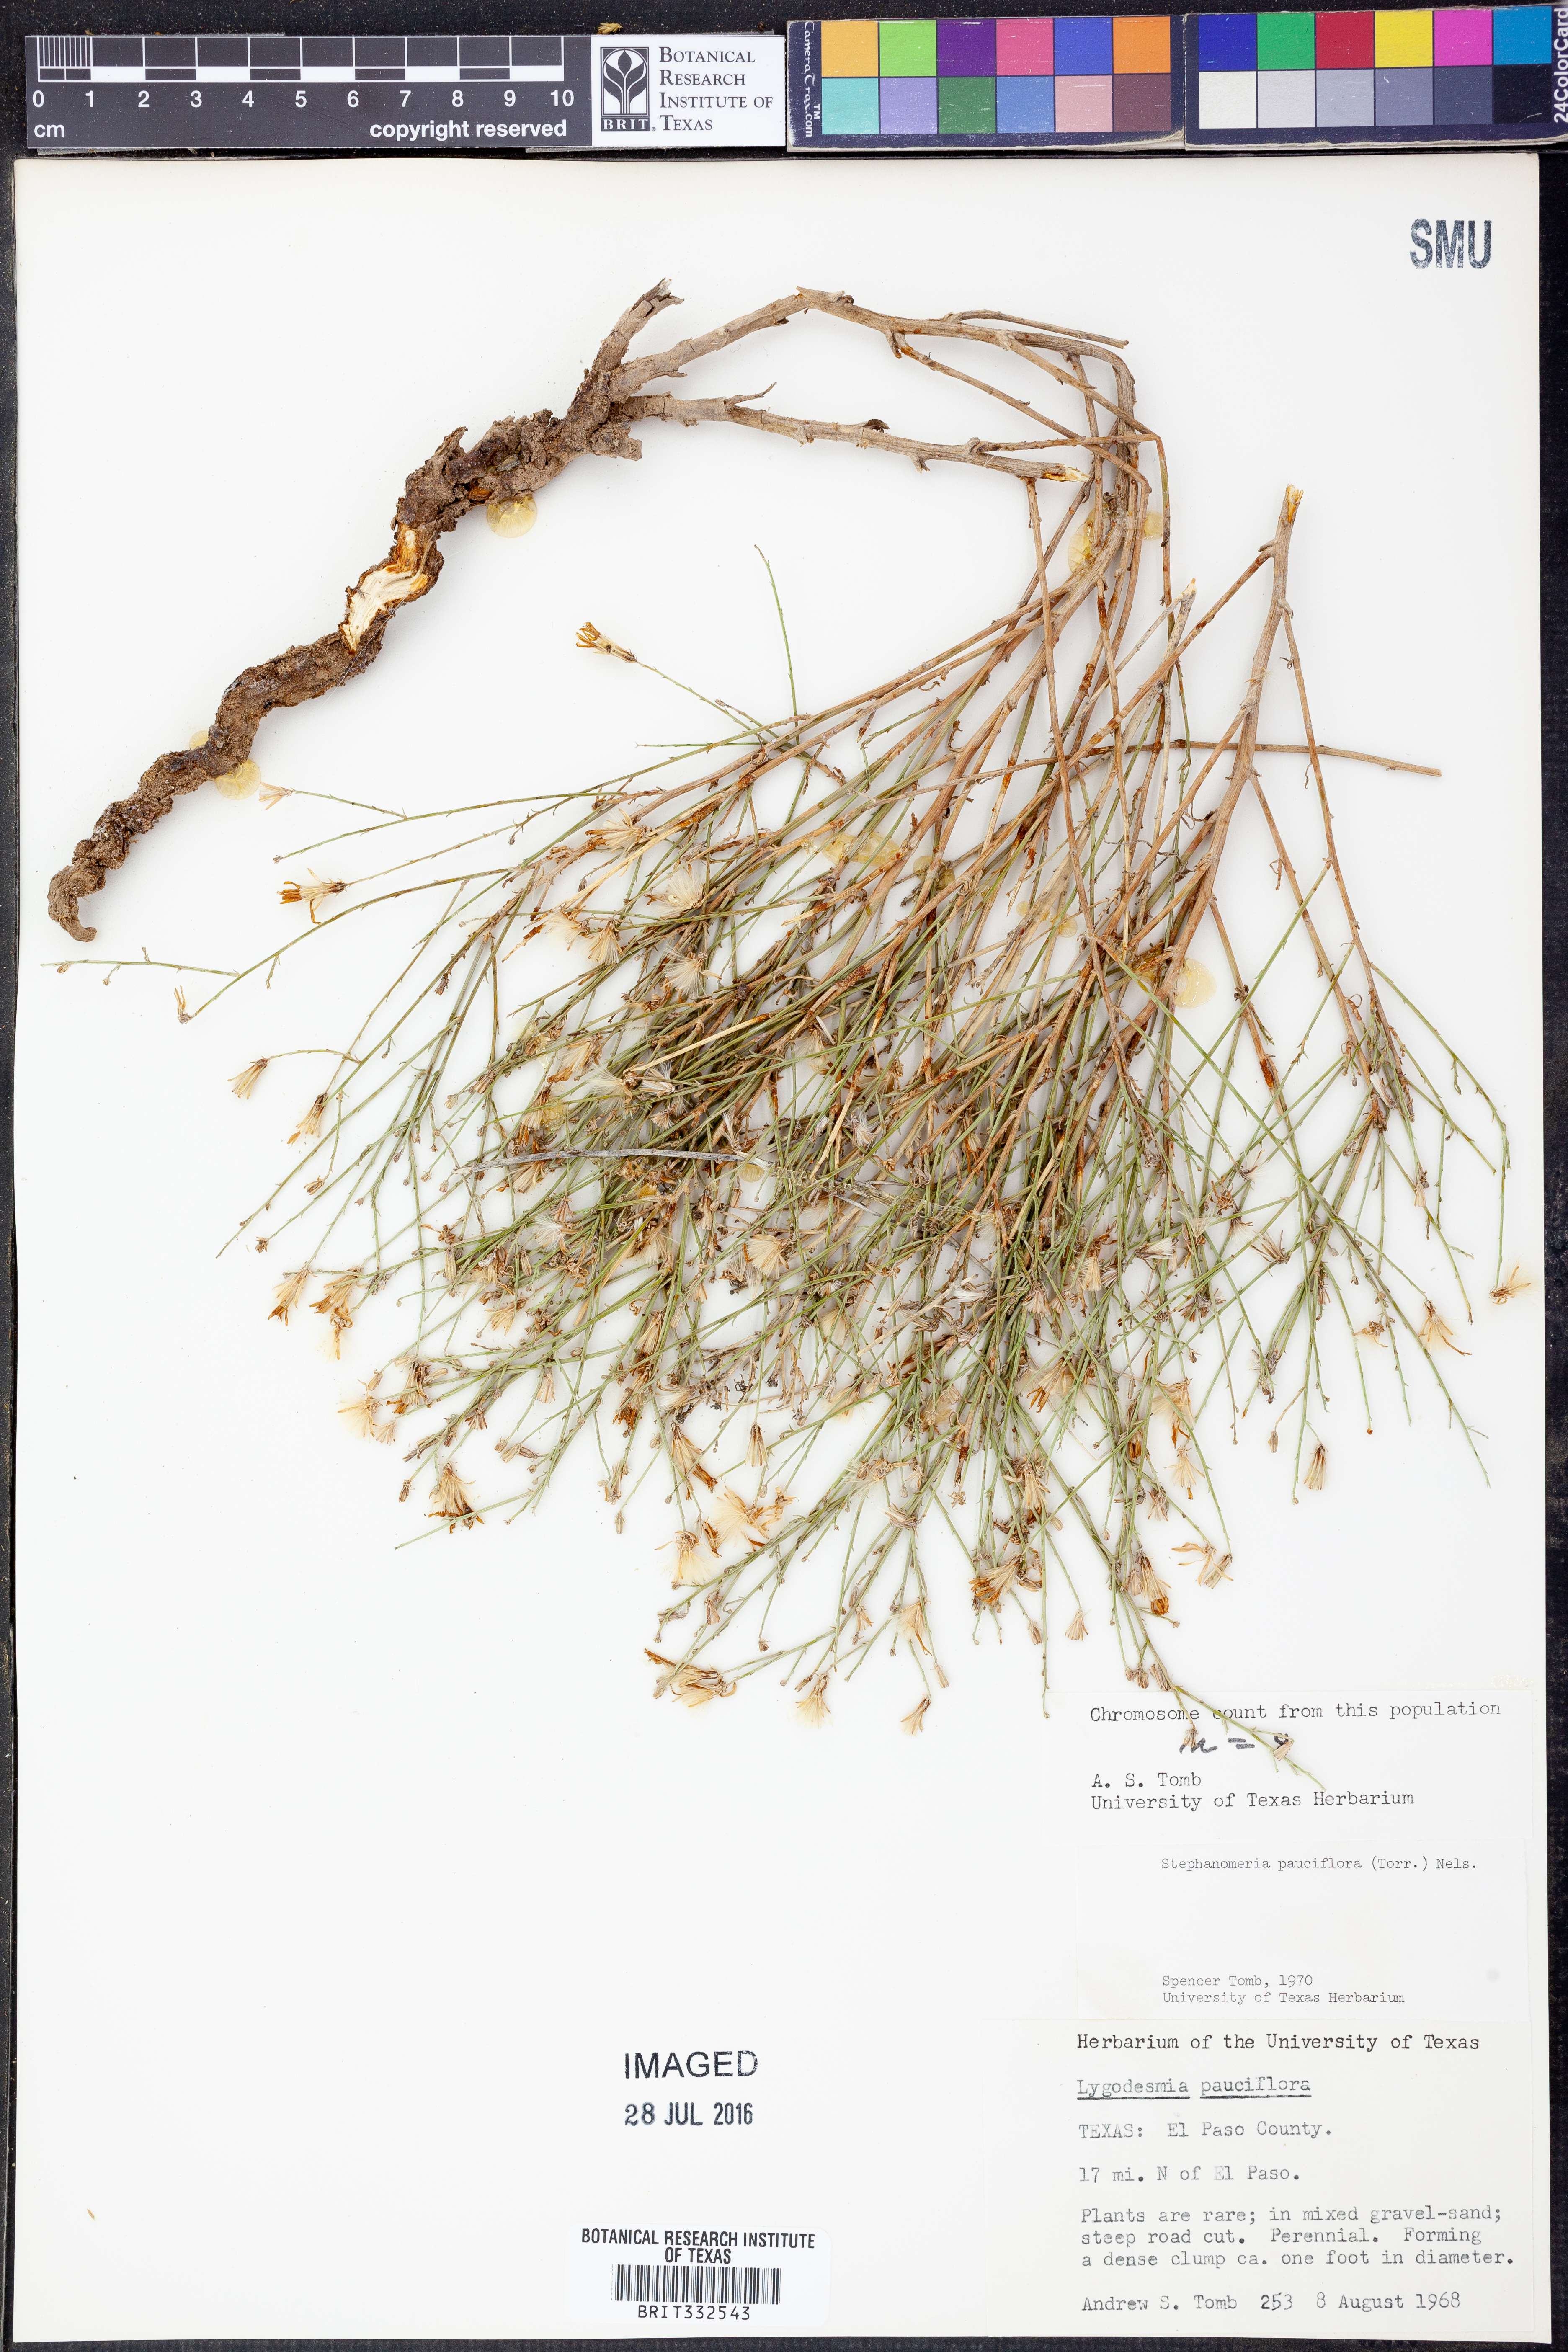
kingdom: Plantae
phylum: Tracheophyta
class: Magnoliopsida
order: Asterales
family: Asteraceae
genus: Stephanomeria
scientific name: Stephanomeria pauciflora
